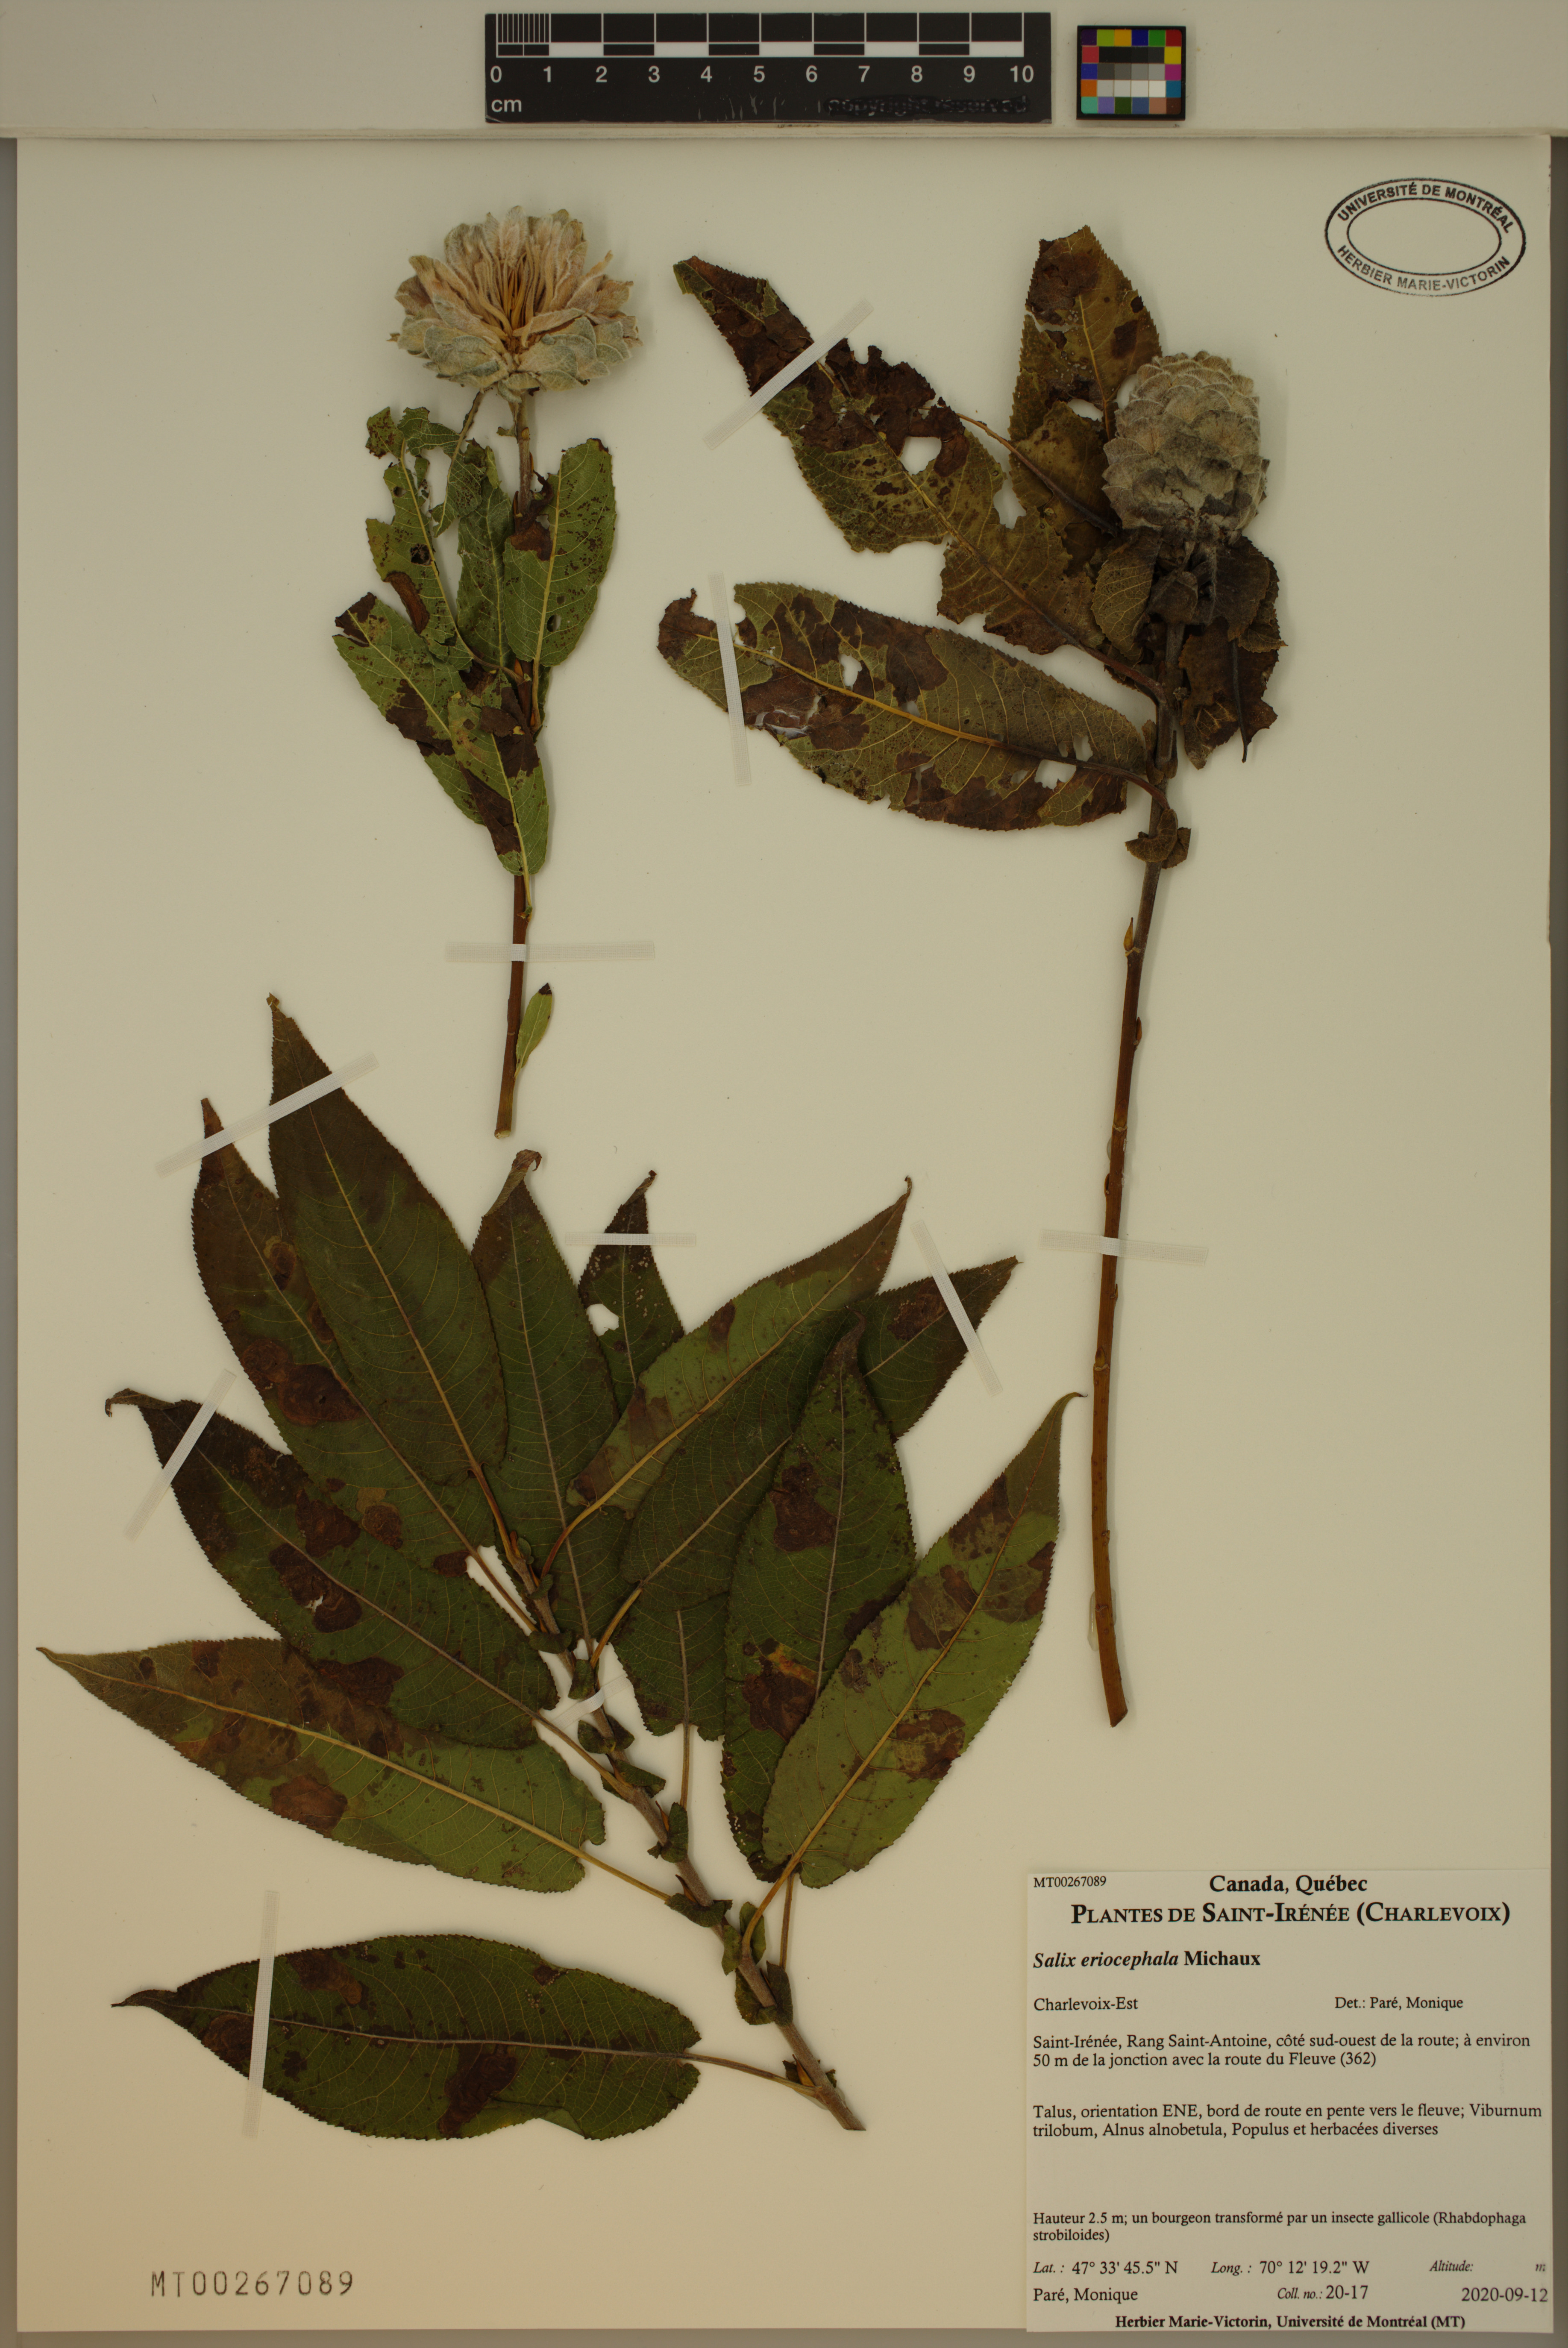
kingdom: Plantae
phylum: Tracheophyta
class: Magnoliopsida
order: Malpighiales
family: Salicaceae
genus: Salix
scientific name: Salix eriocephala
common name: Heart-leaved willow
